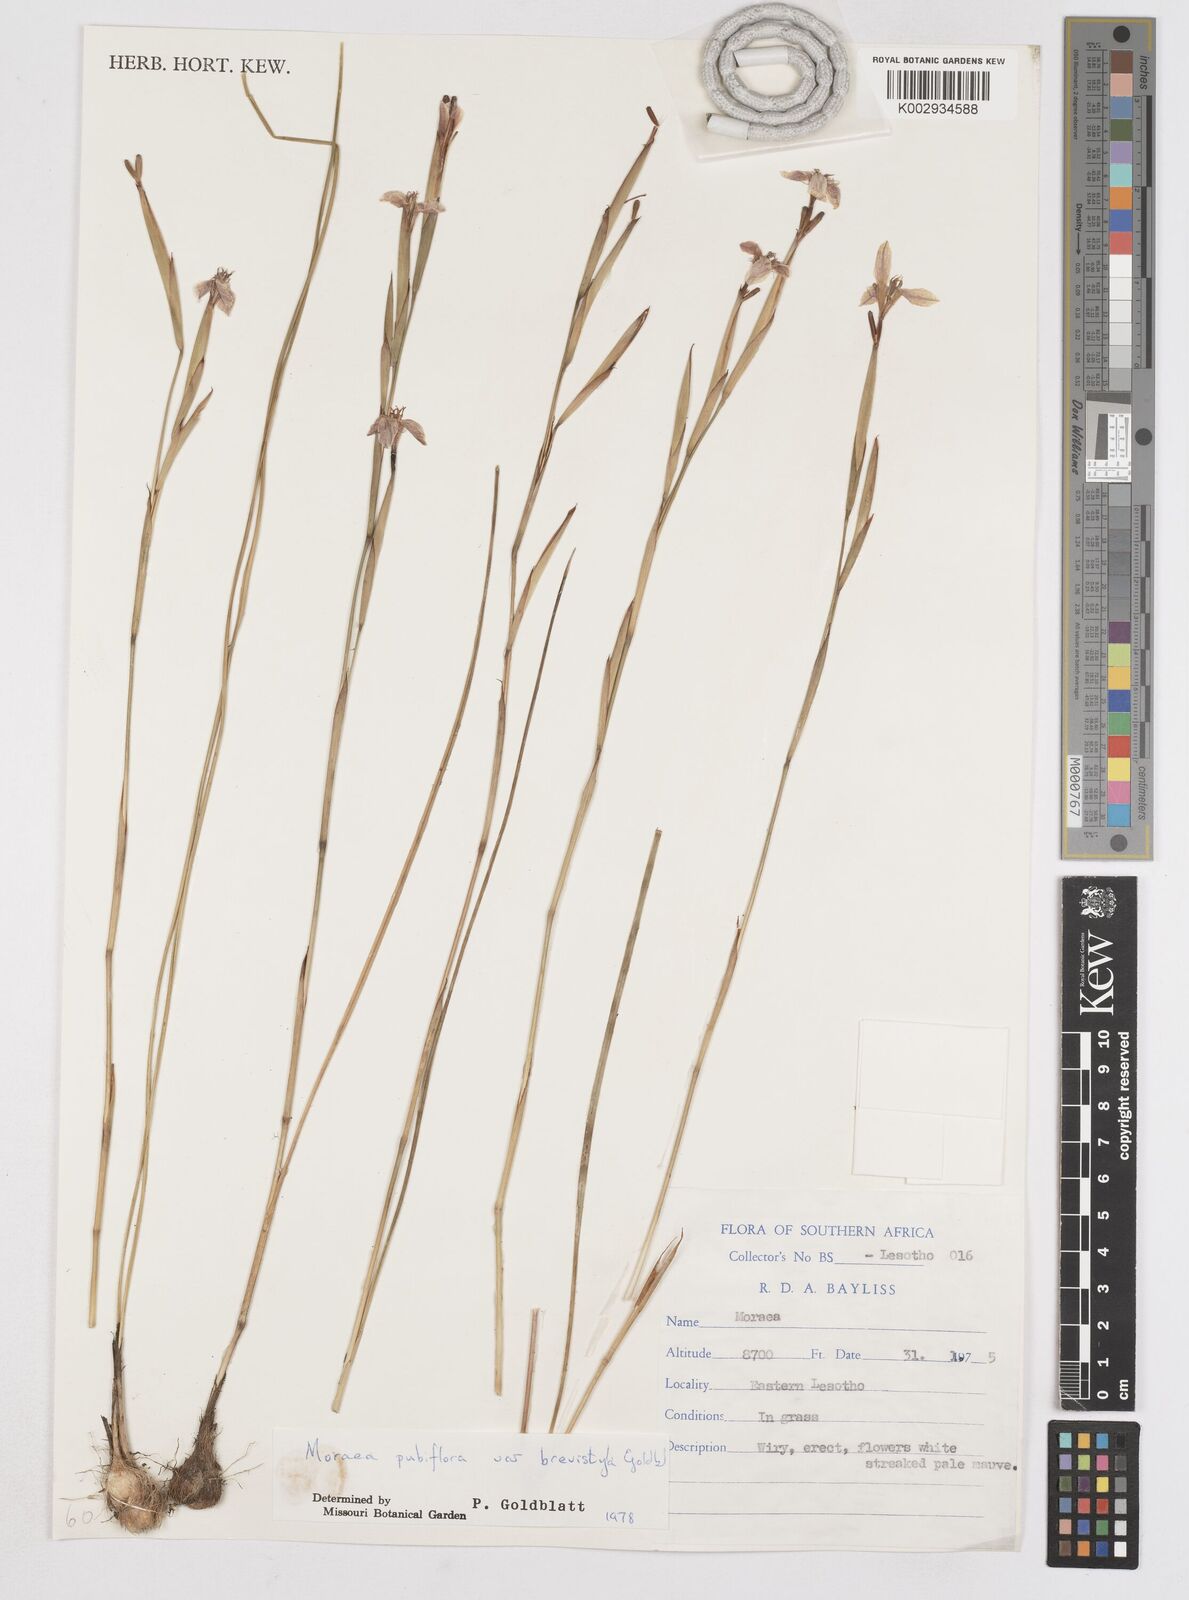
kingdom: Plantae
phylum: Tracheophyta
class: Liliopsida
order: Asparagales
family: Iridaceae
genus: Moraea
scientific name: Moraea brevistyla
